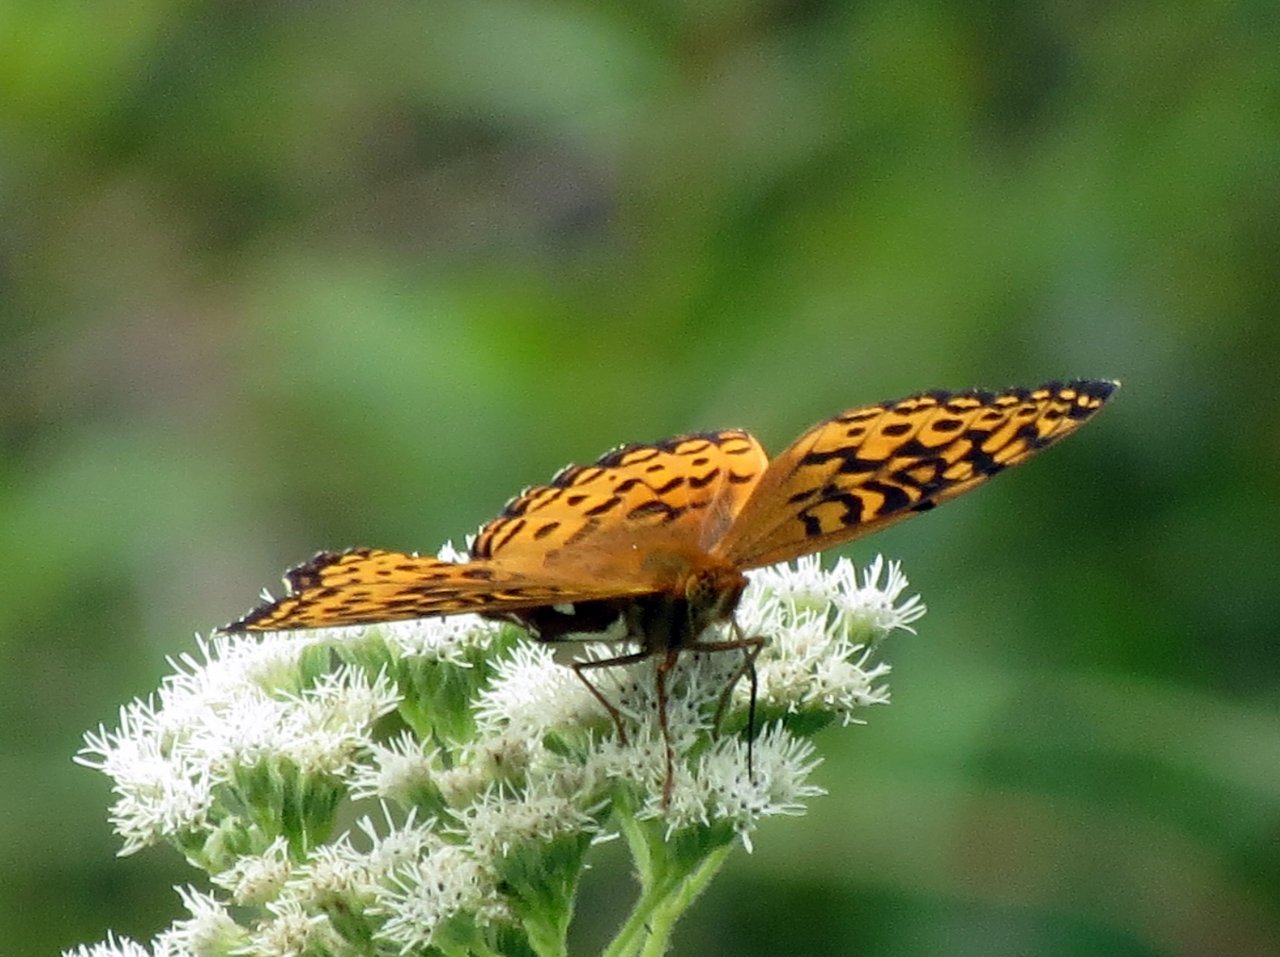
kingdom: Animalia
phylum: Arthropoda
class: Insecta
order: Lepidoptera
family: Nymphalidae
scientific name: Nymphalidae
